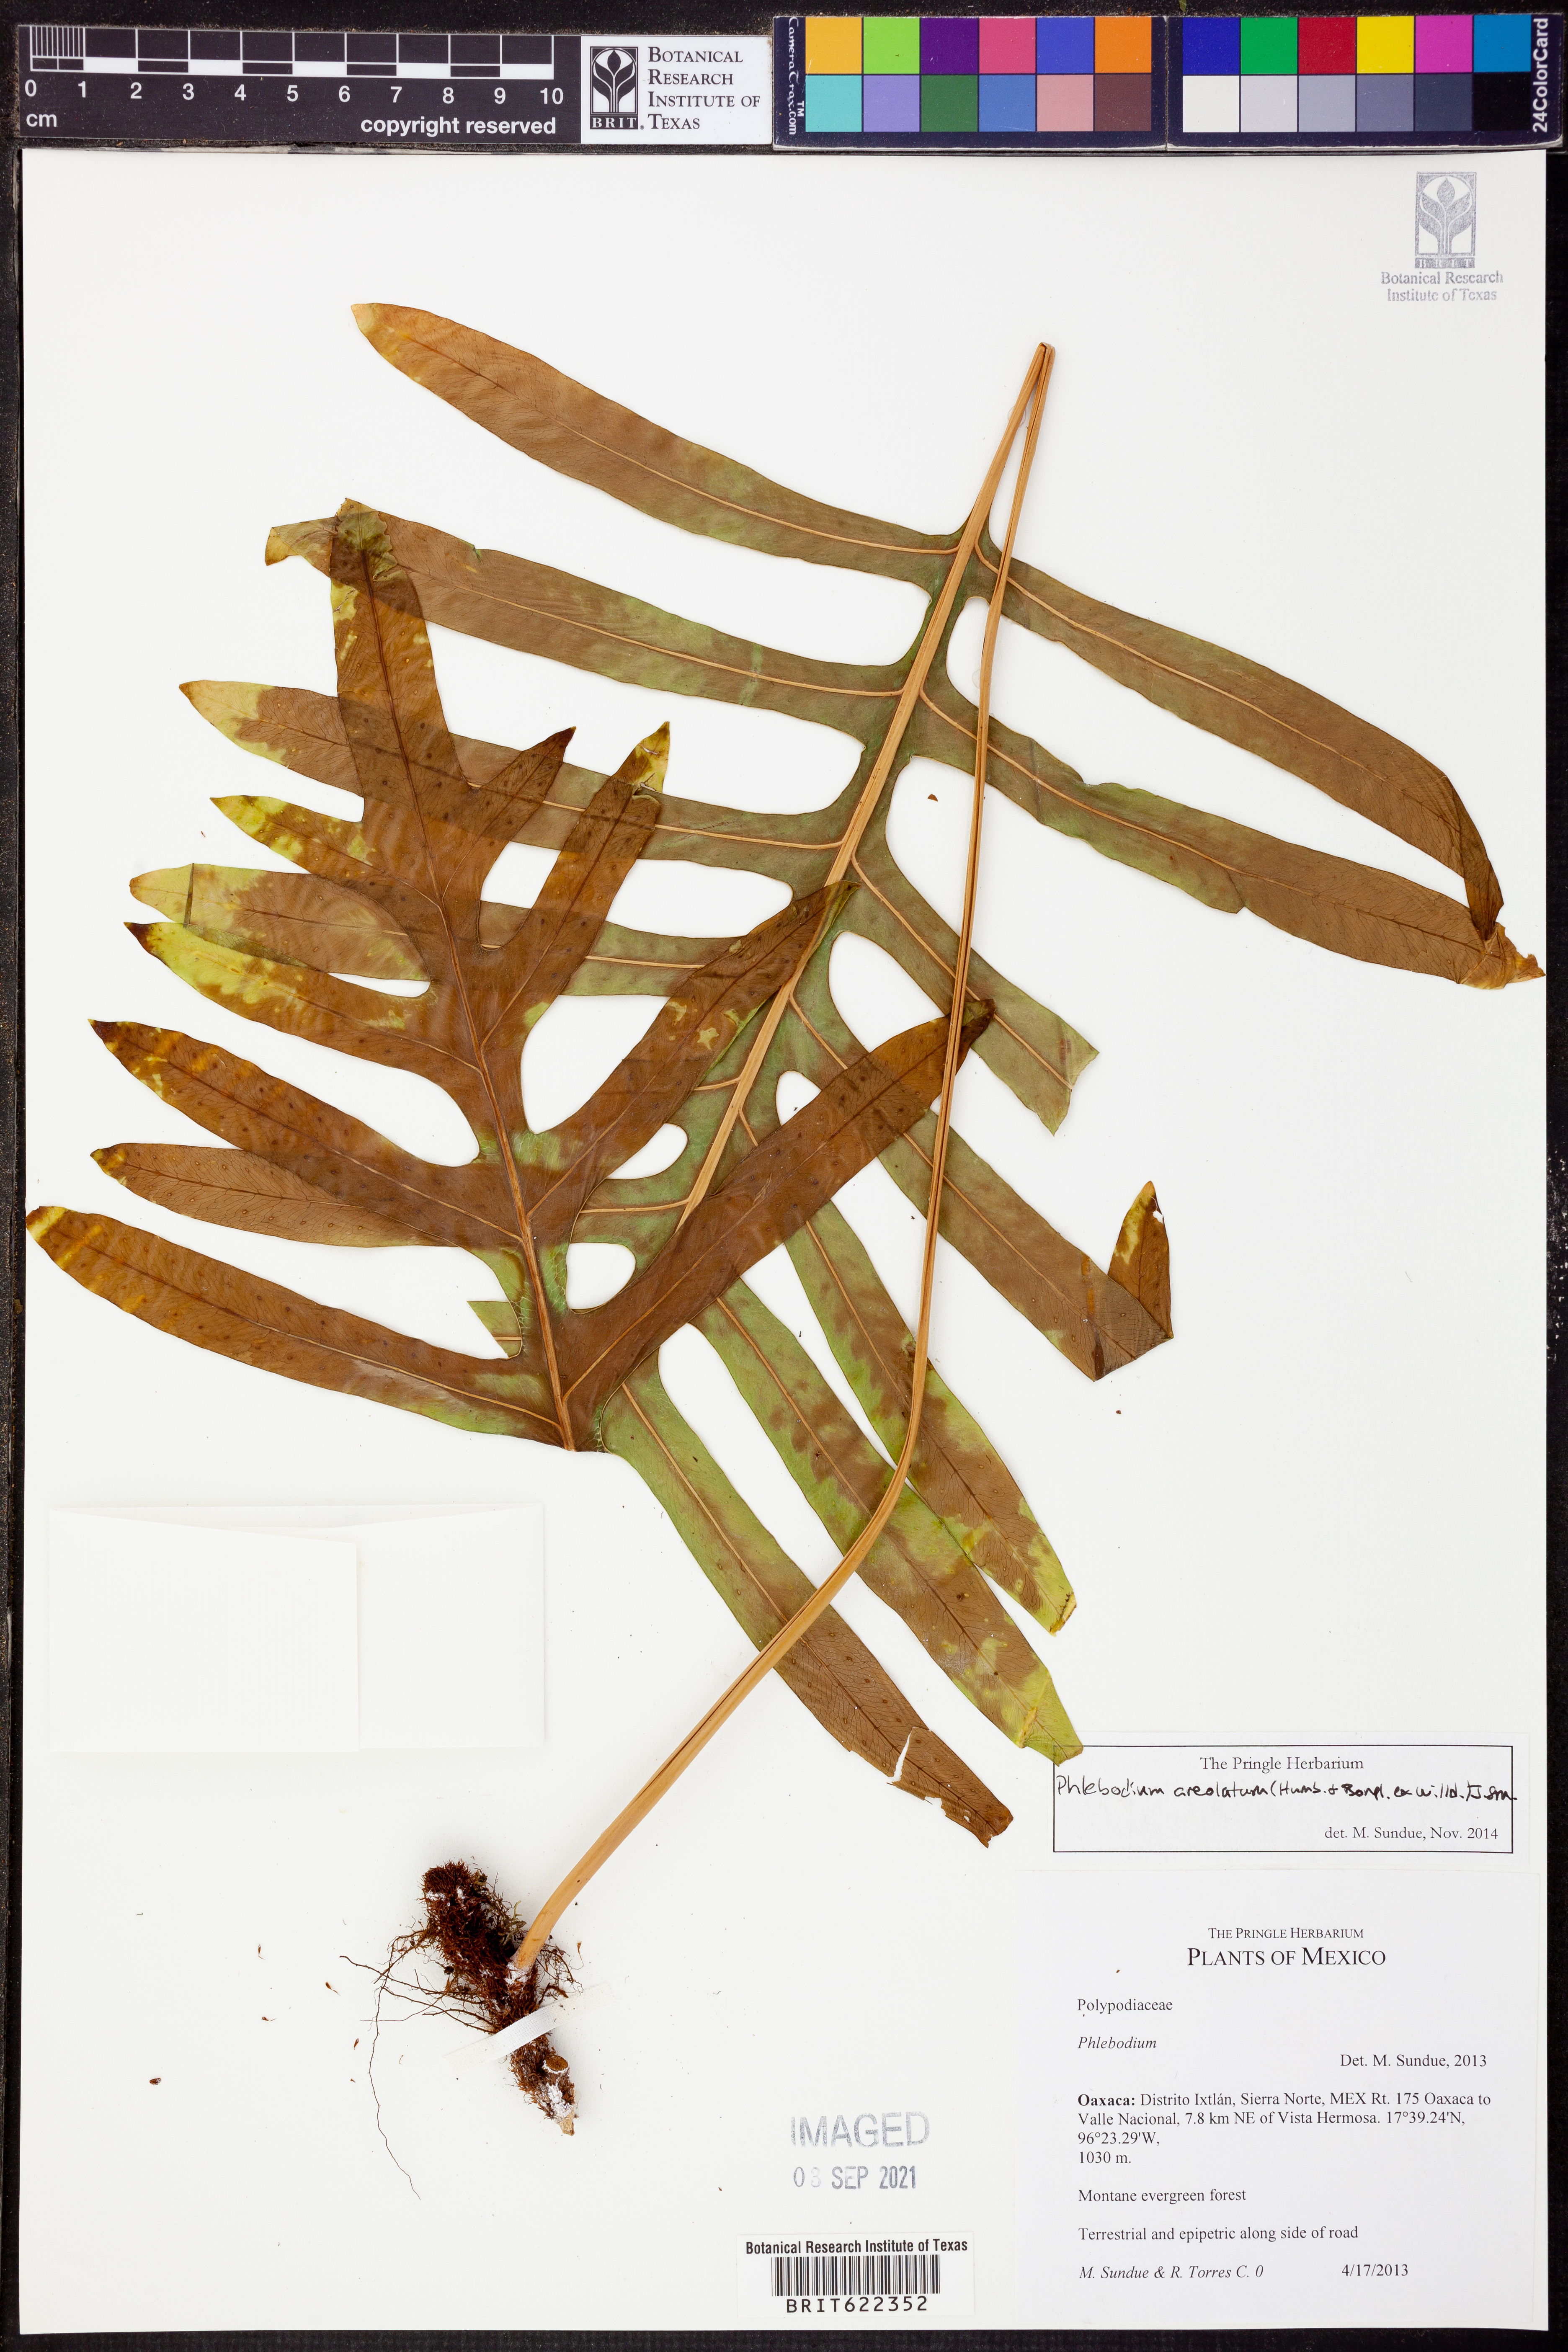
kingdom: Plantae
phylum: Tracheophyta
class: Polypodiopsida
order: Polypodiales
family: Polypodiaceae
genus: Phlebodium
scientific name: Phlebodium pseudoaureum
